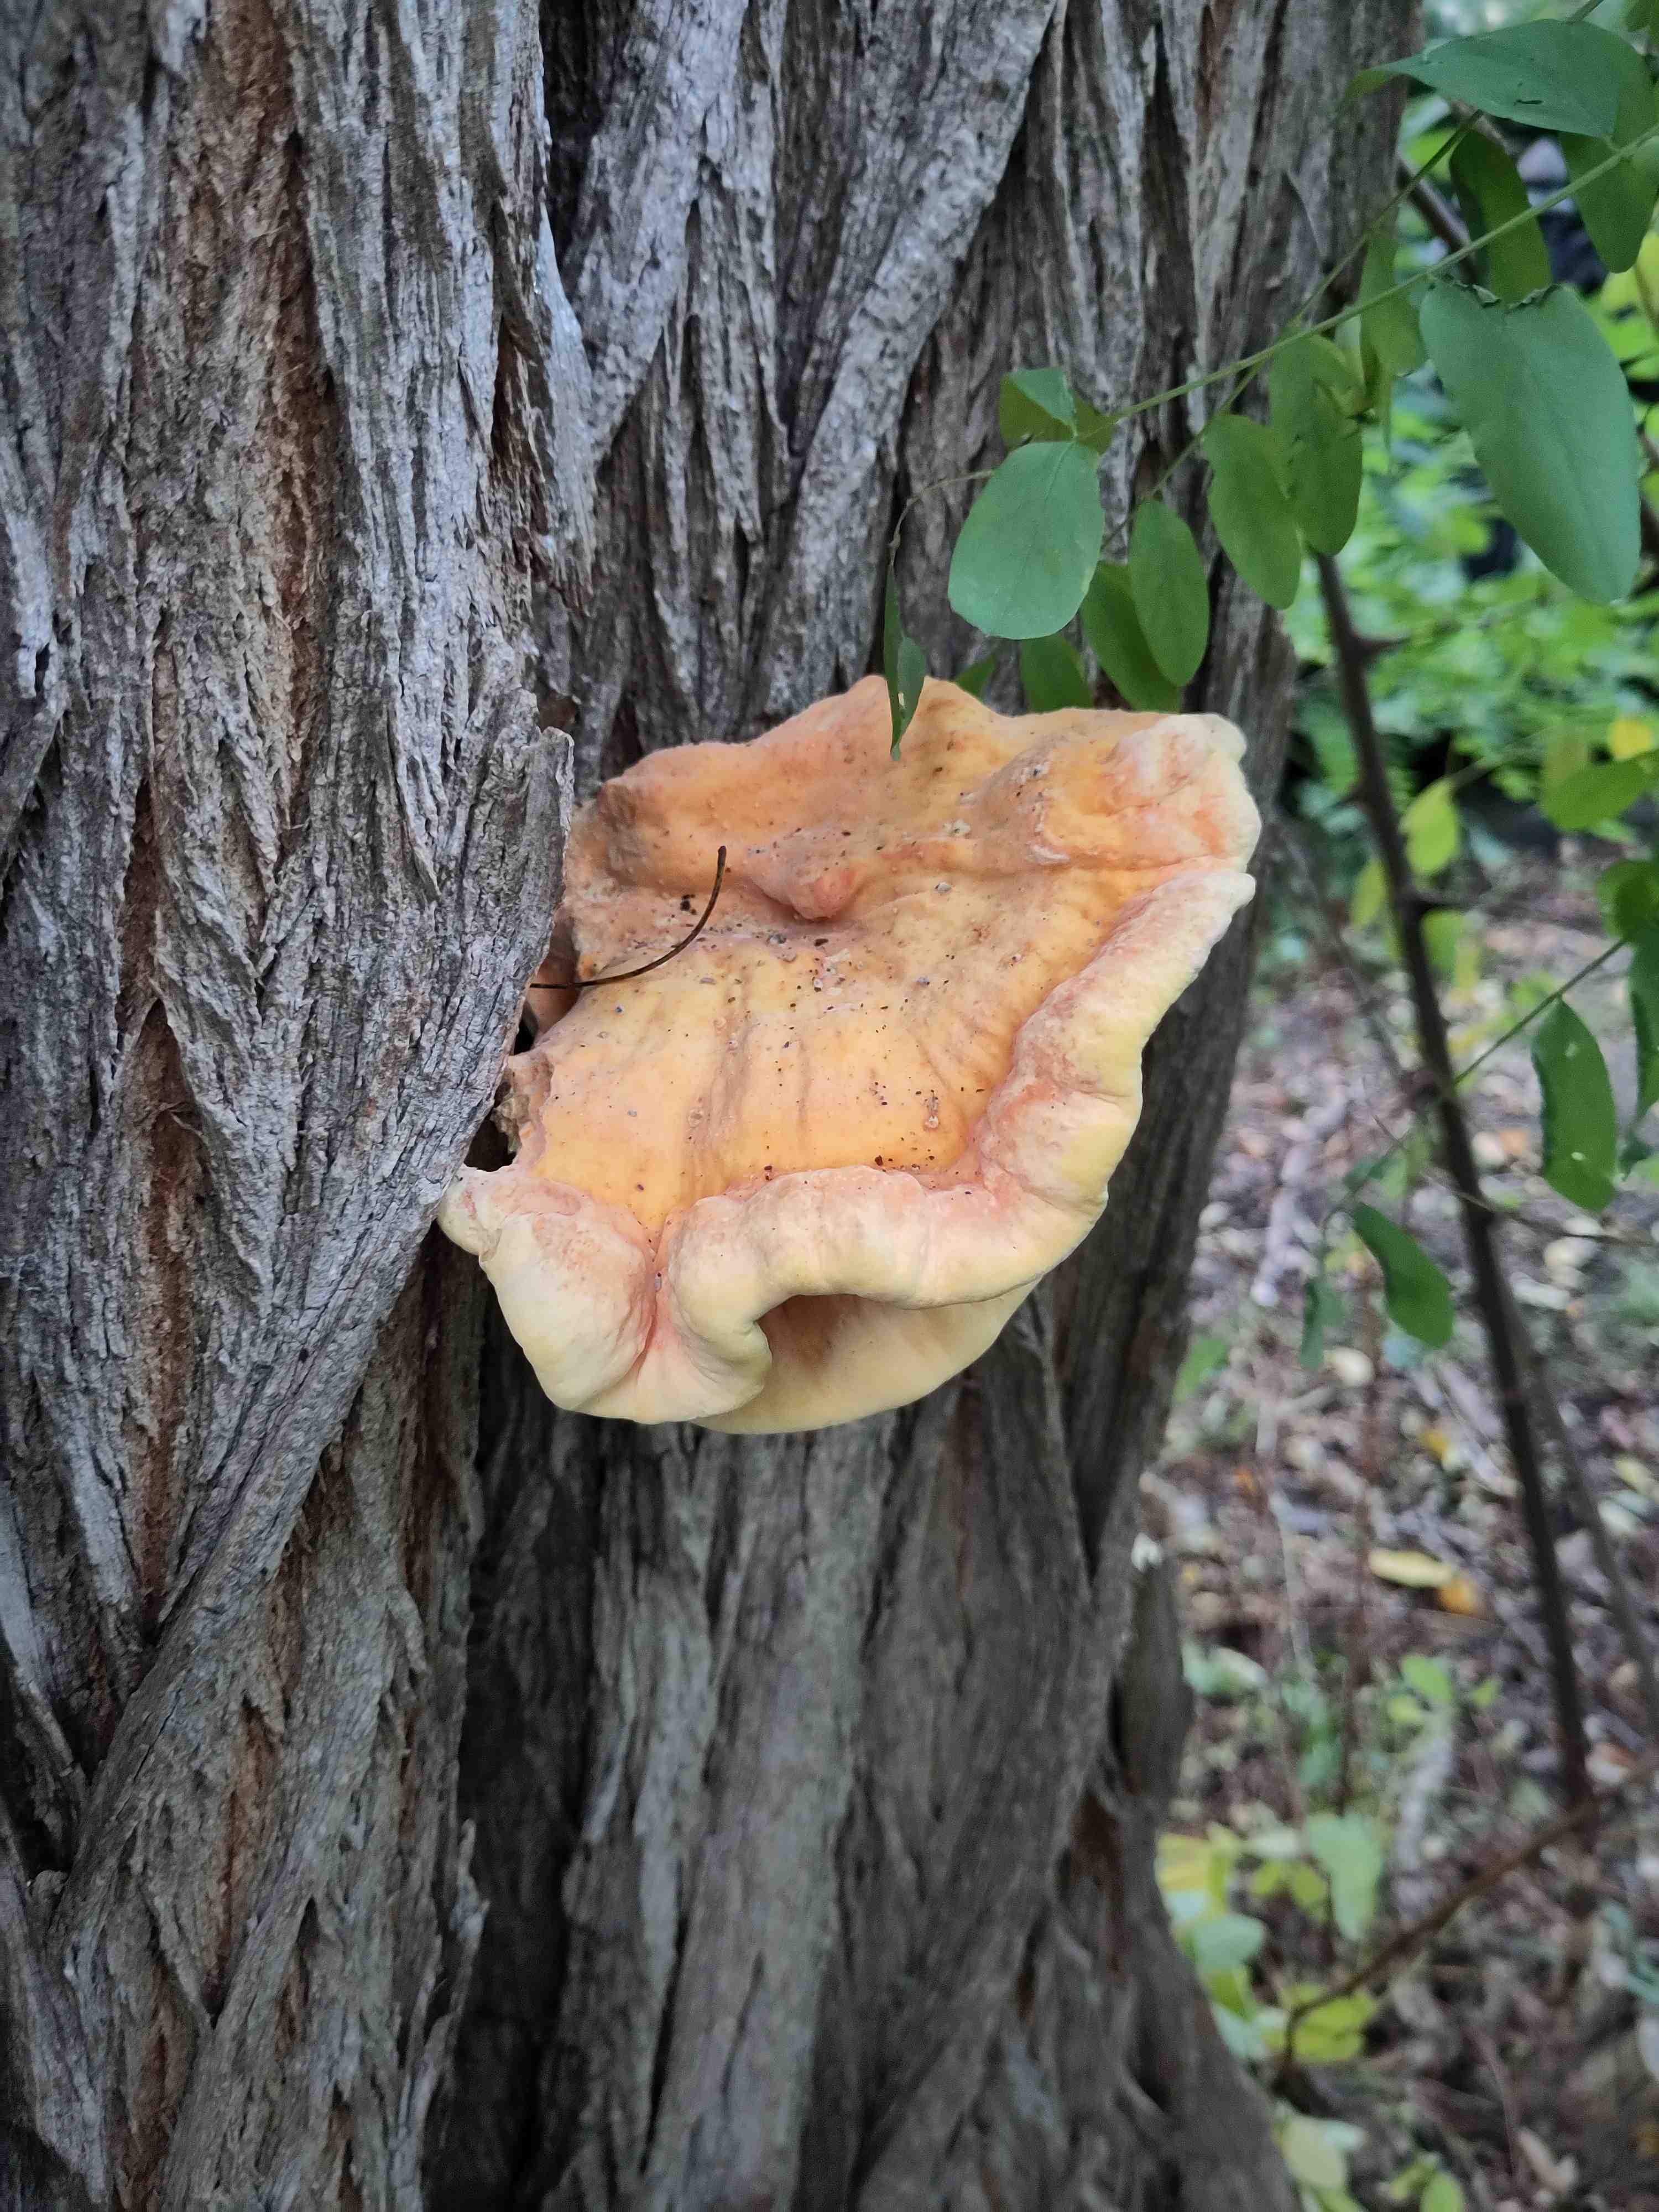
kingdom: Fungi
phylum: Basidiomycota
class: Agaricomycetes
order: Polyporales
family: Laetiporaceae
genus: Laetiporus
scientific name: Laetiporus sulphureus
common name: svovlporesvamp
